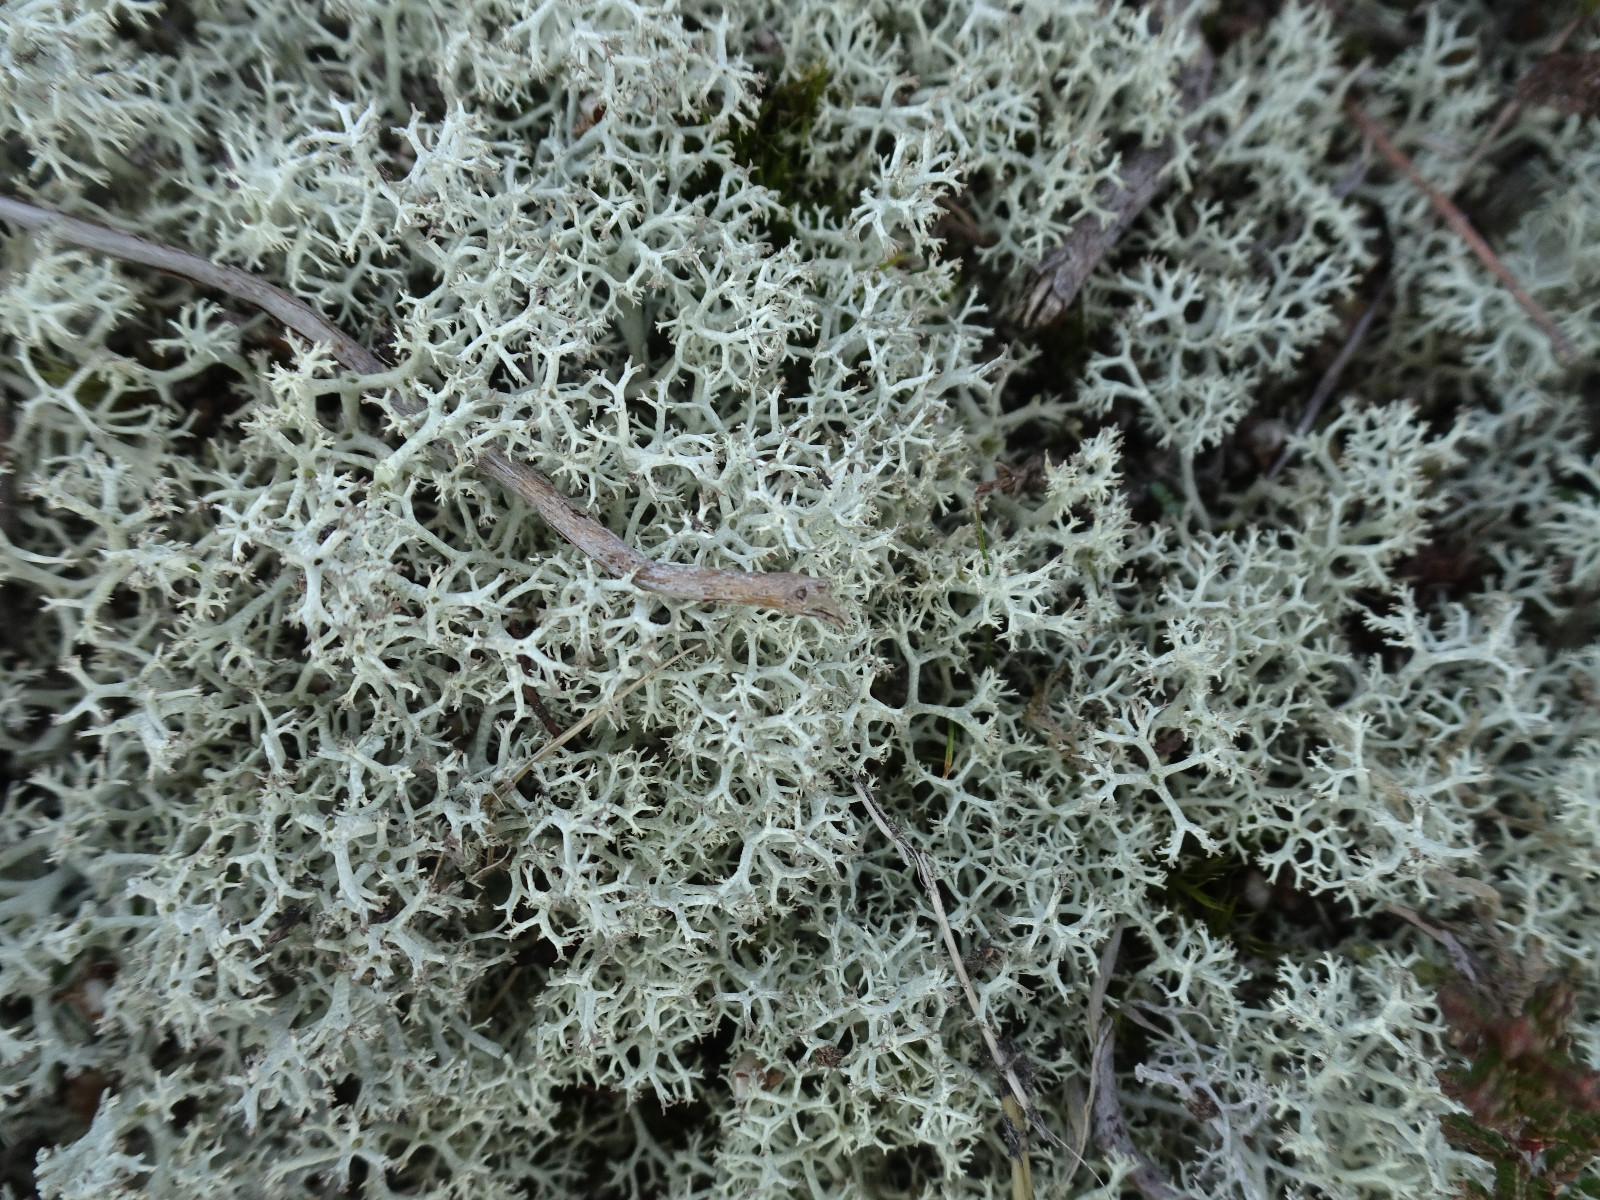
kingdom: Fungi
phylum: Ascomycota
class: Lecanoromycetes
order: Lecanorales
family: Cladoniaceae
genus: Cladonia
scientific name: Cladonia portentosa
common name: hede-rensdyrlav
